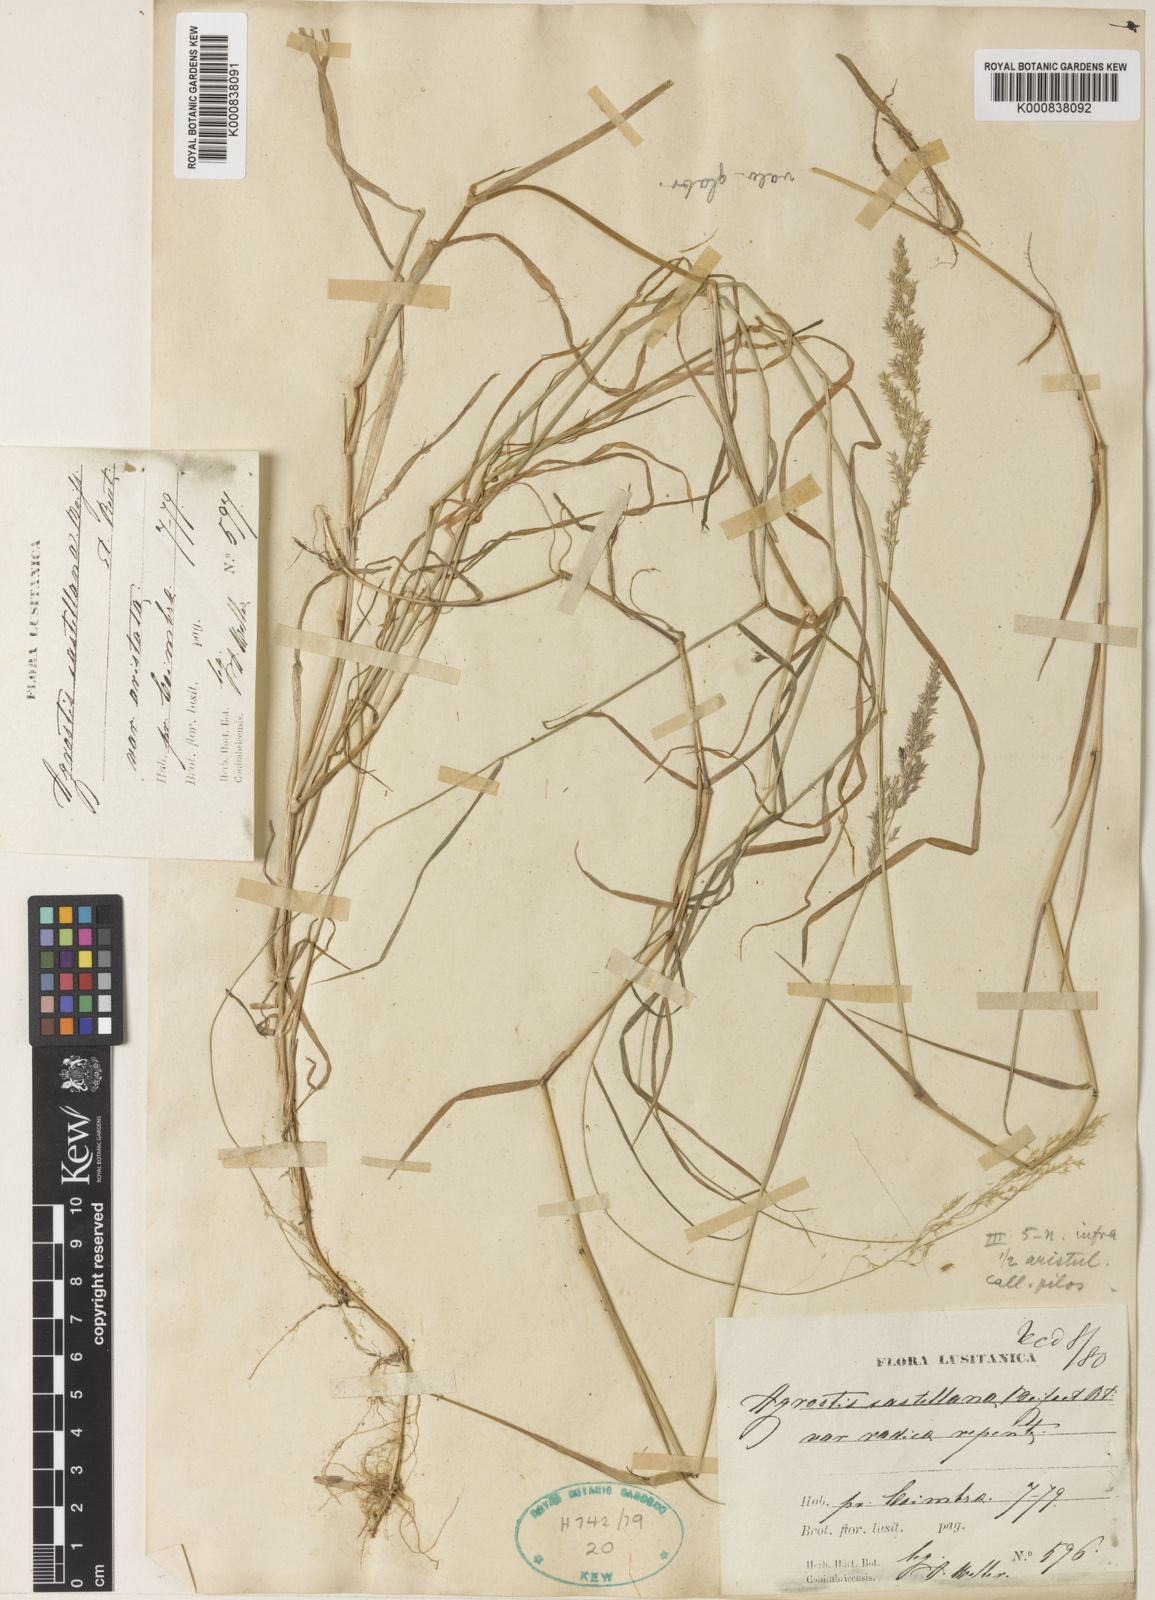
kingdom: Plantae
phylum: Tracheophyta
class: Liliopsida
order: Poales
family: Poaceae
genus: Agrostis
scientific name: Agrostis castellana
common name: Highland bent
